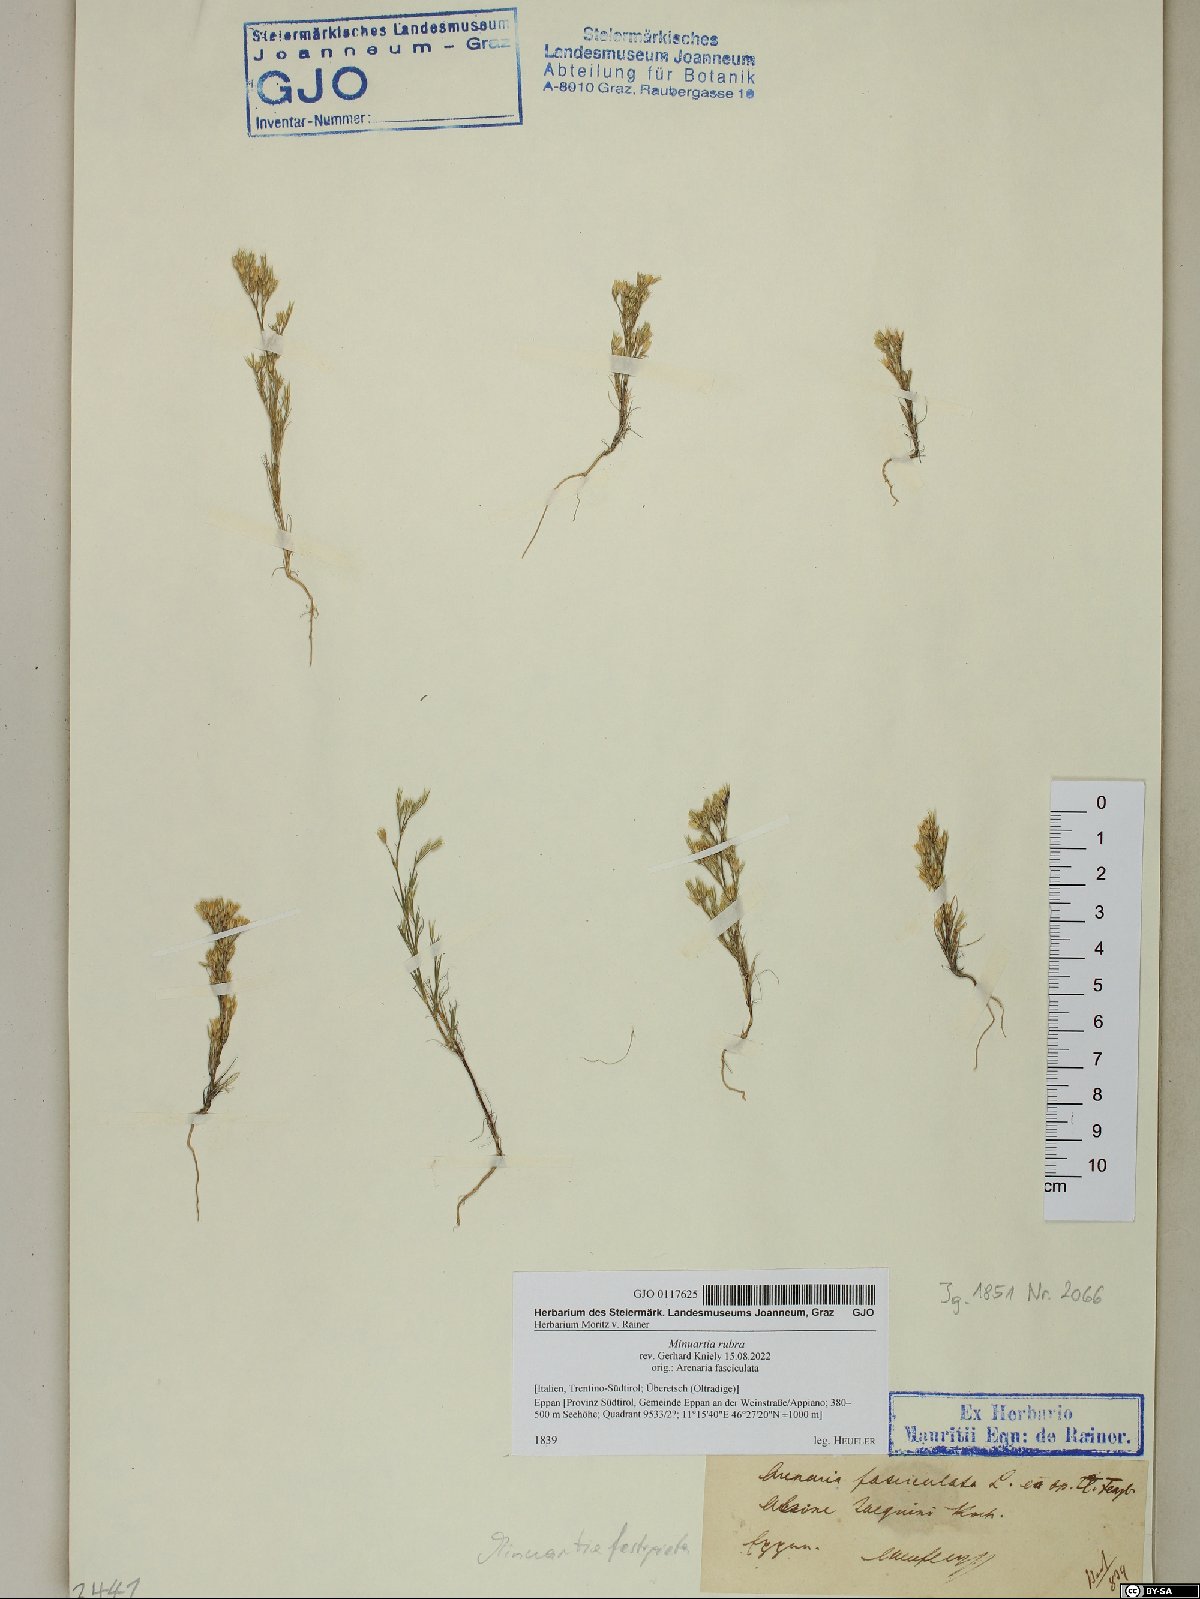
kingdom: Plantae
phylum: Tracheophyta
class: Magnoliopsida
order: Caryophyllales
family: Caryophyllaceae
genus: Minuartia
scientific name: Minuartia mucronata
